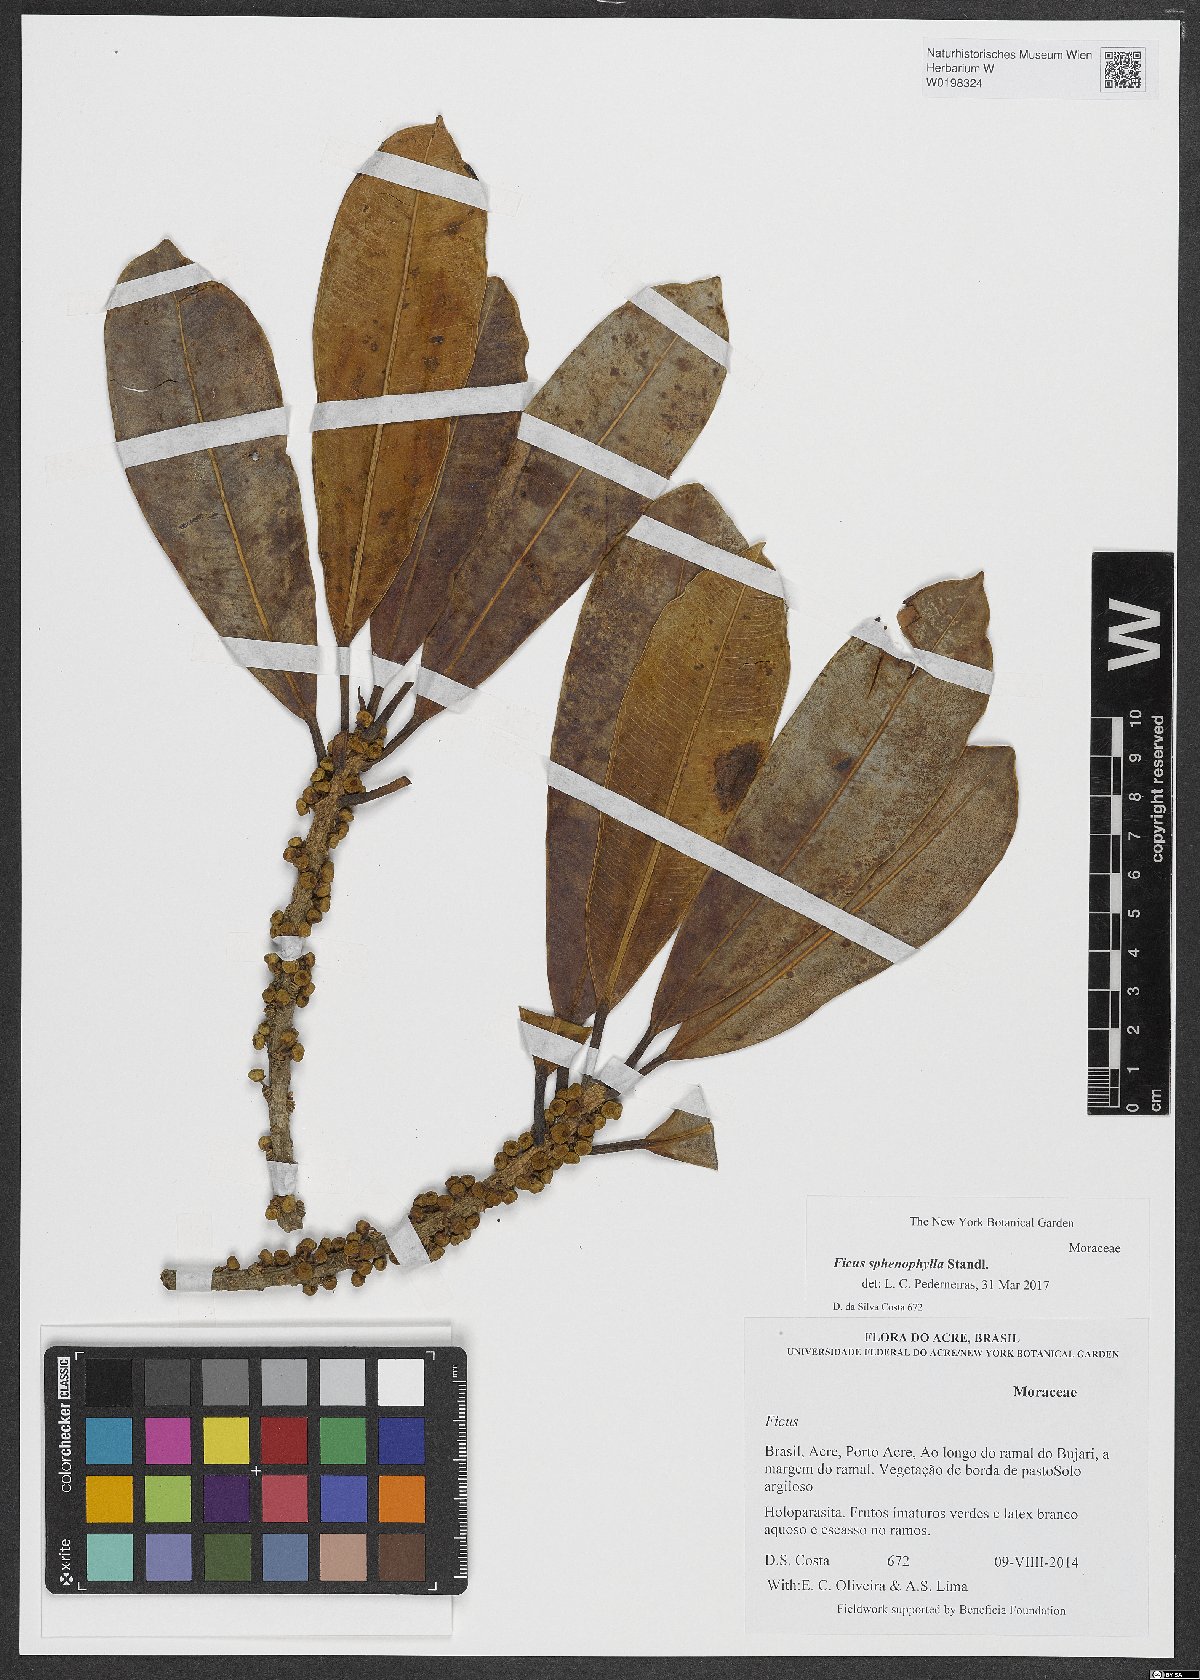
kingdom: Plantae
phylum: Tracheophyta
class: Magnoliopsida
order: Rosales
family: Moraceae
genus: Ficus
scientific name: Ficus sphenophylla
